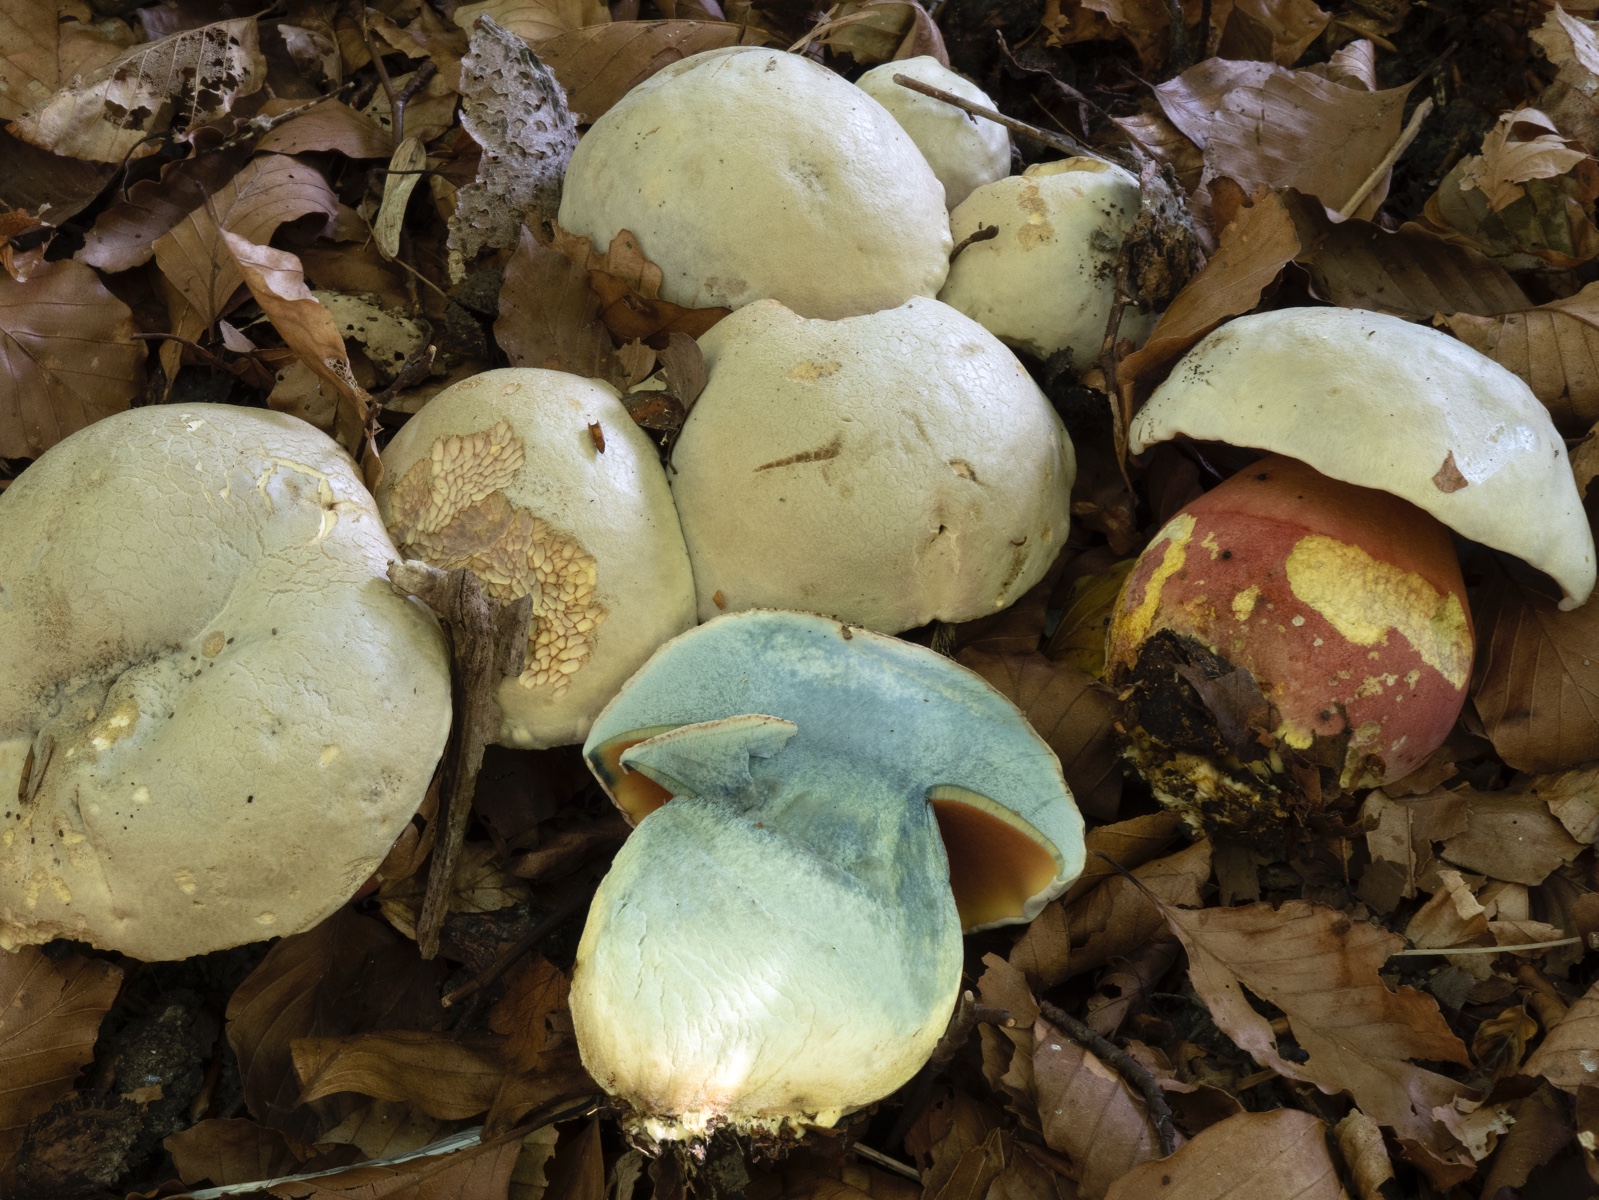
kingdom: Fungi
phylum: Basidiomycota
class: Agaricomycetes
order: Boletales
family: Boletaceae
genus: Rubroboletus
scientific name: Rubroboletus satanas
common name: Satans rørhat
